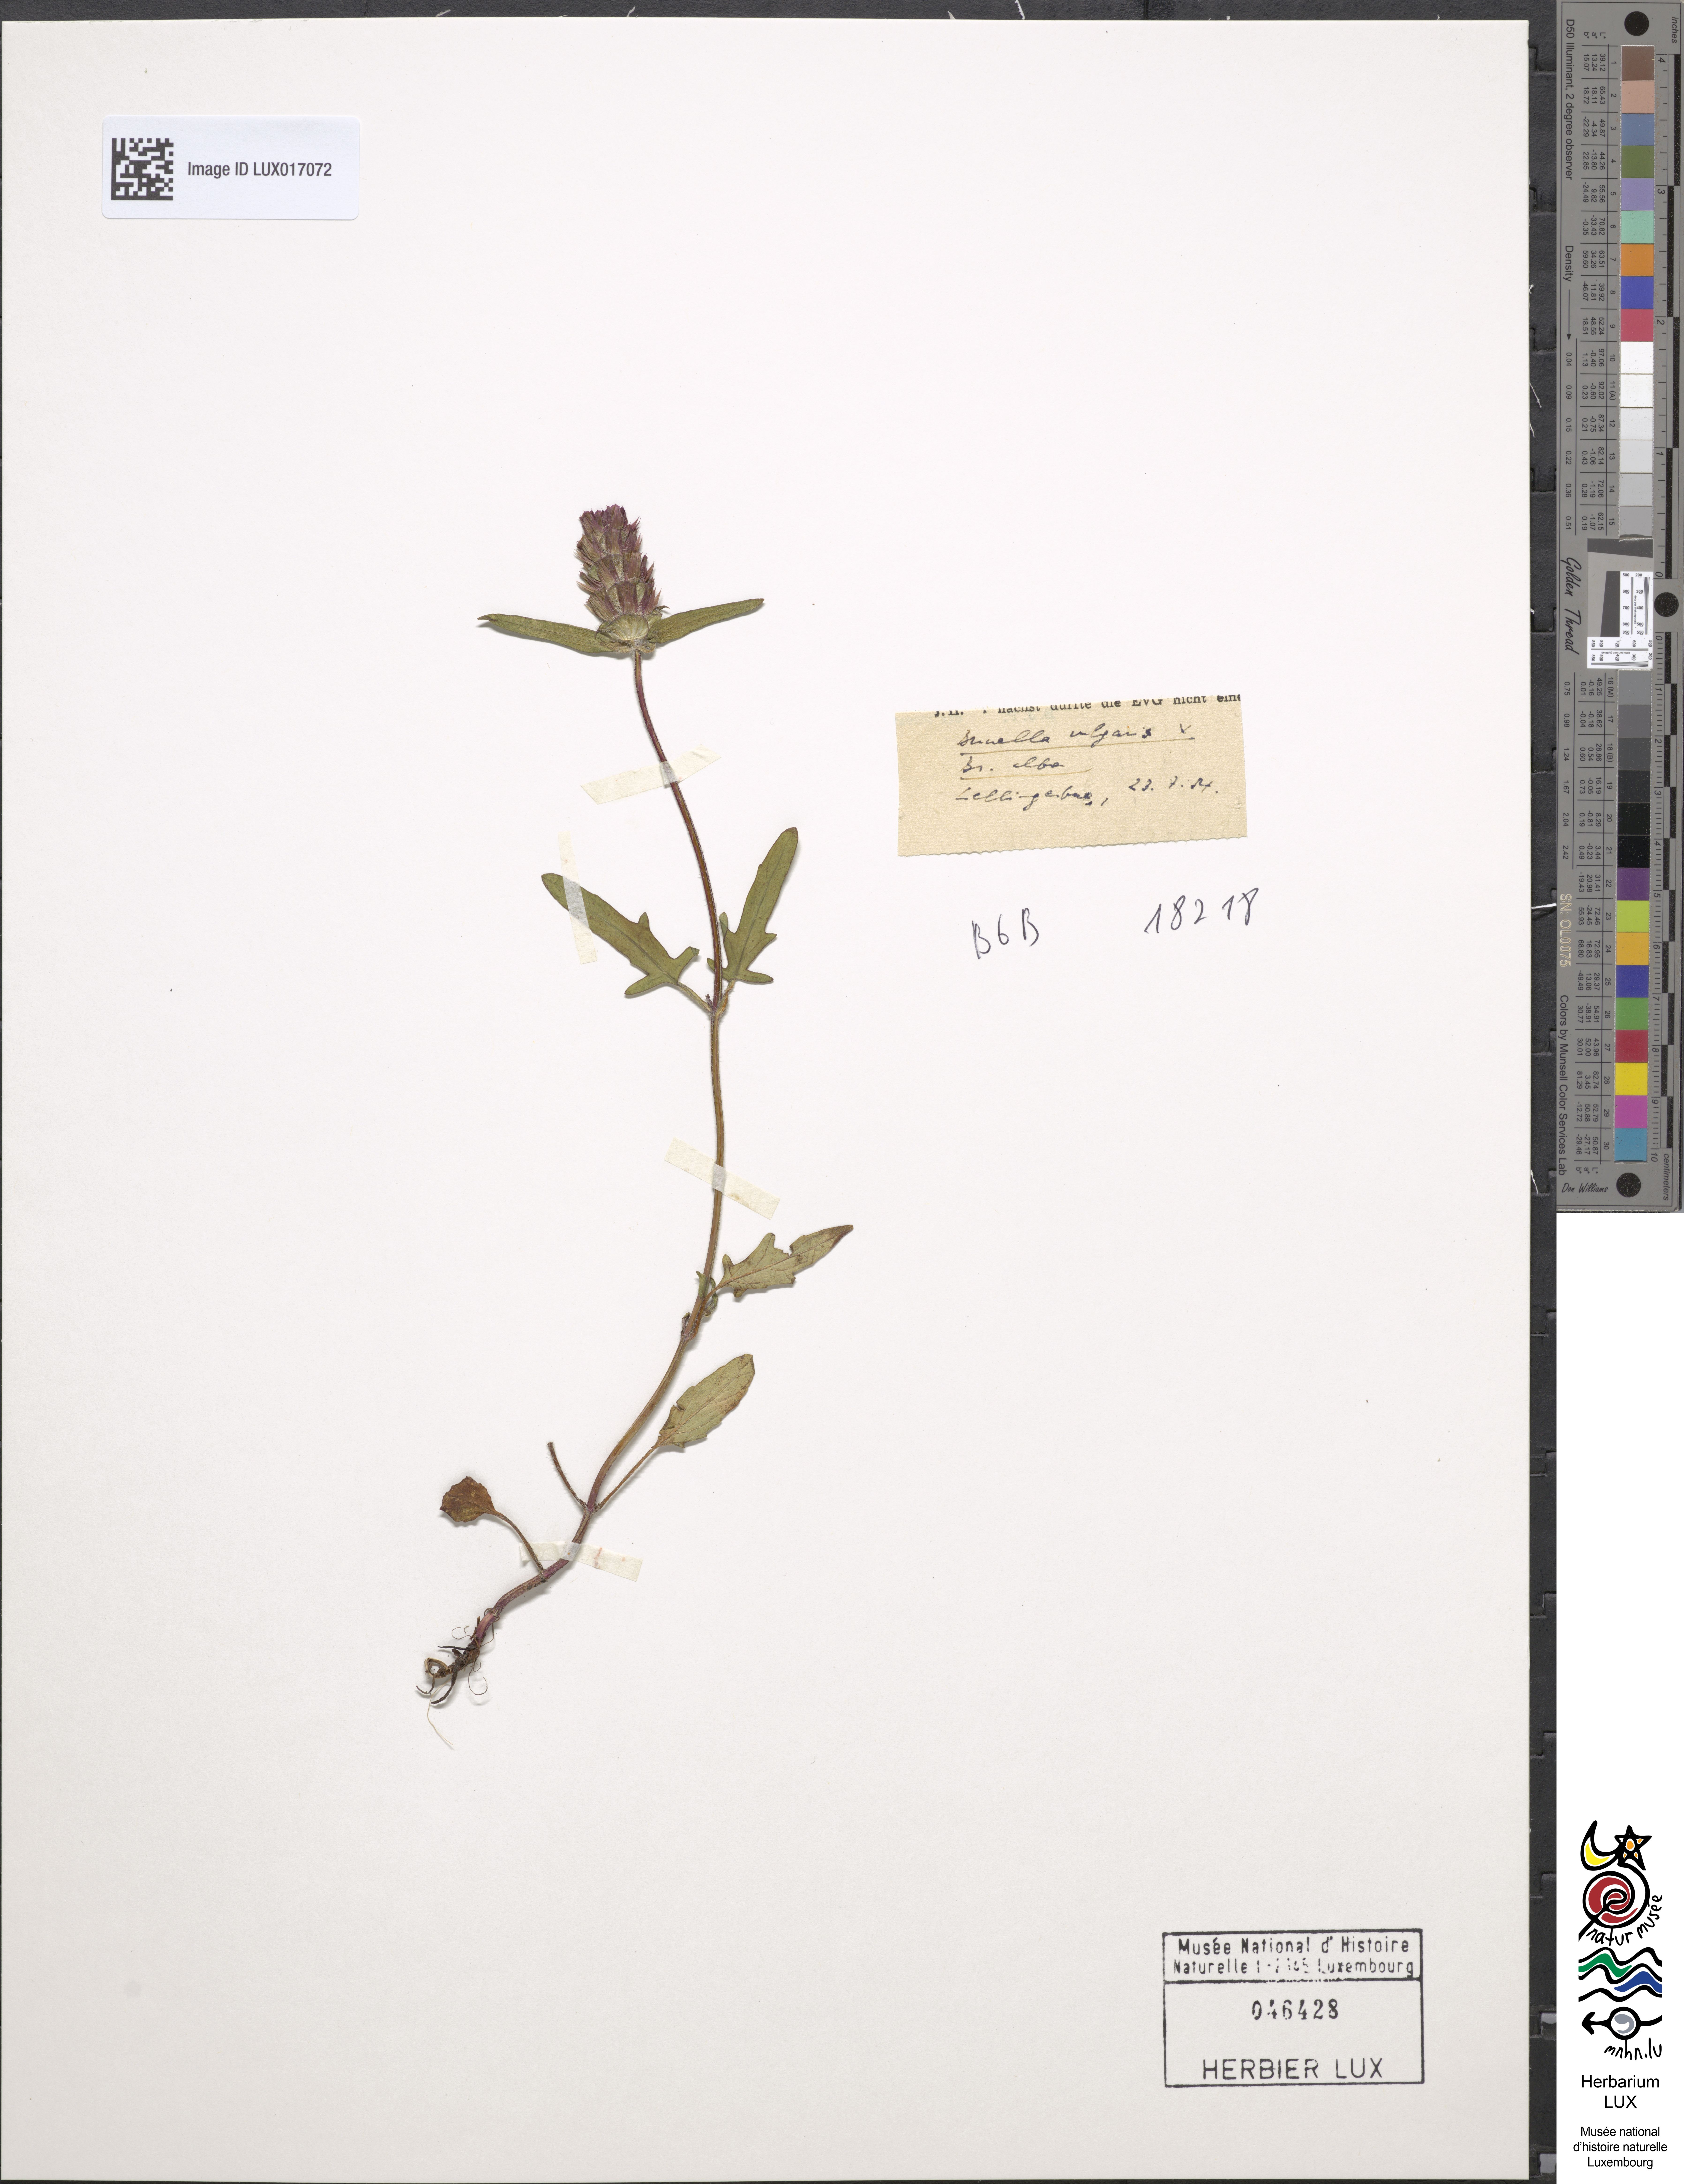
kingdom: Plantae
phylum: Tracheophyta
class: Magnoliopsida
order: Lamiales
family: Lamiaceae
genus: Prunella
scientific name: Prunella vulgaris
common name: Heal-all
